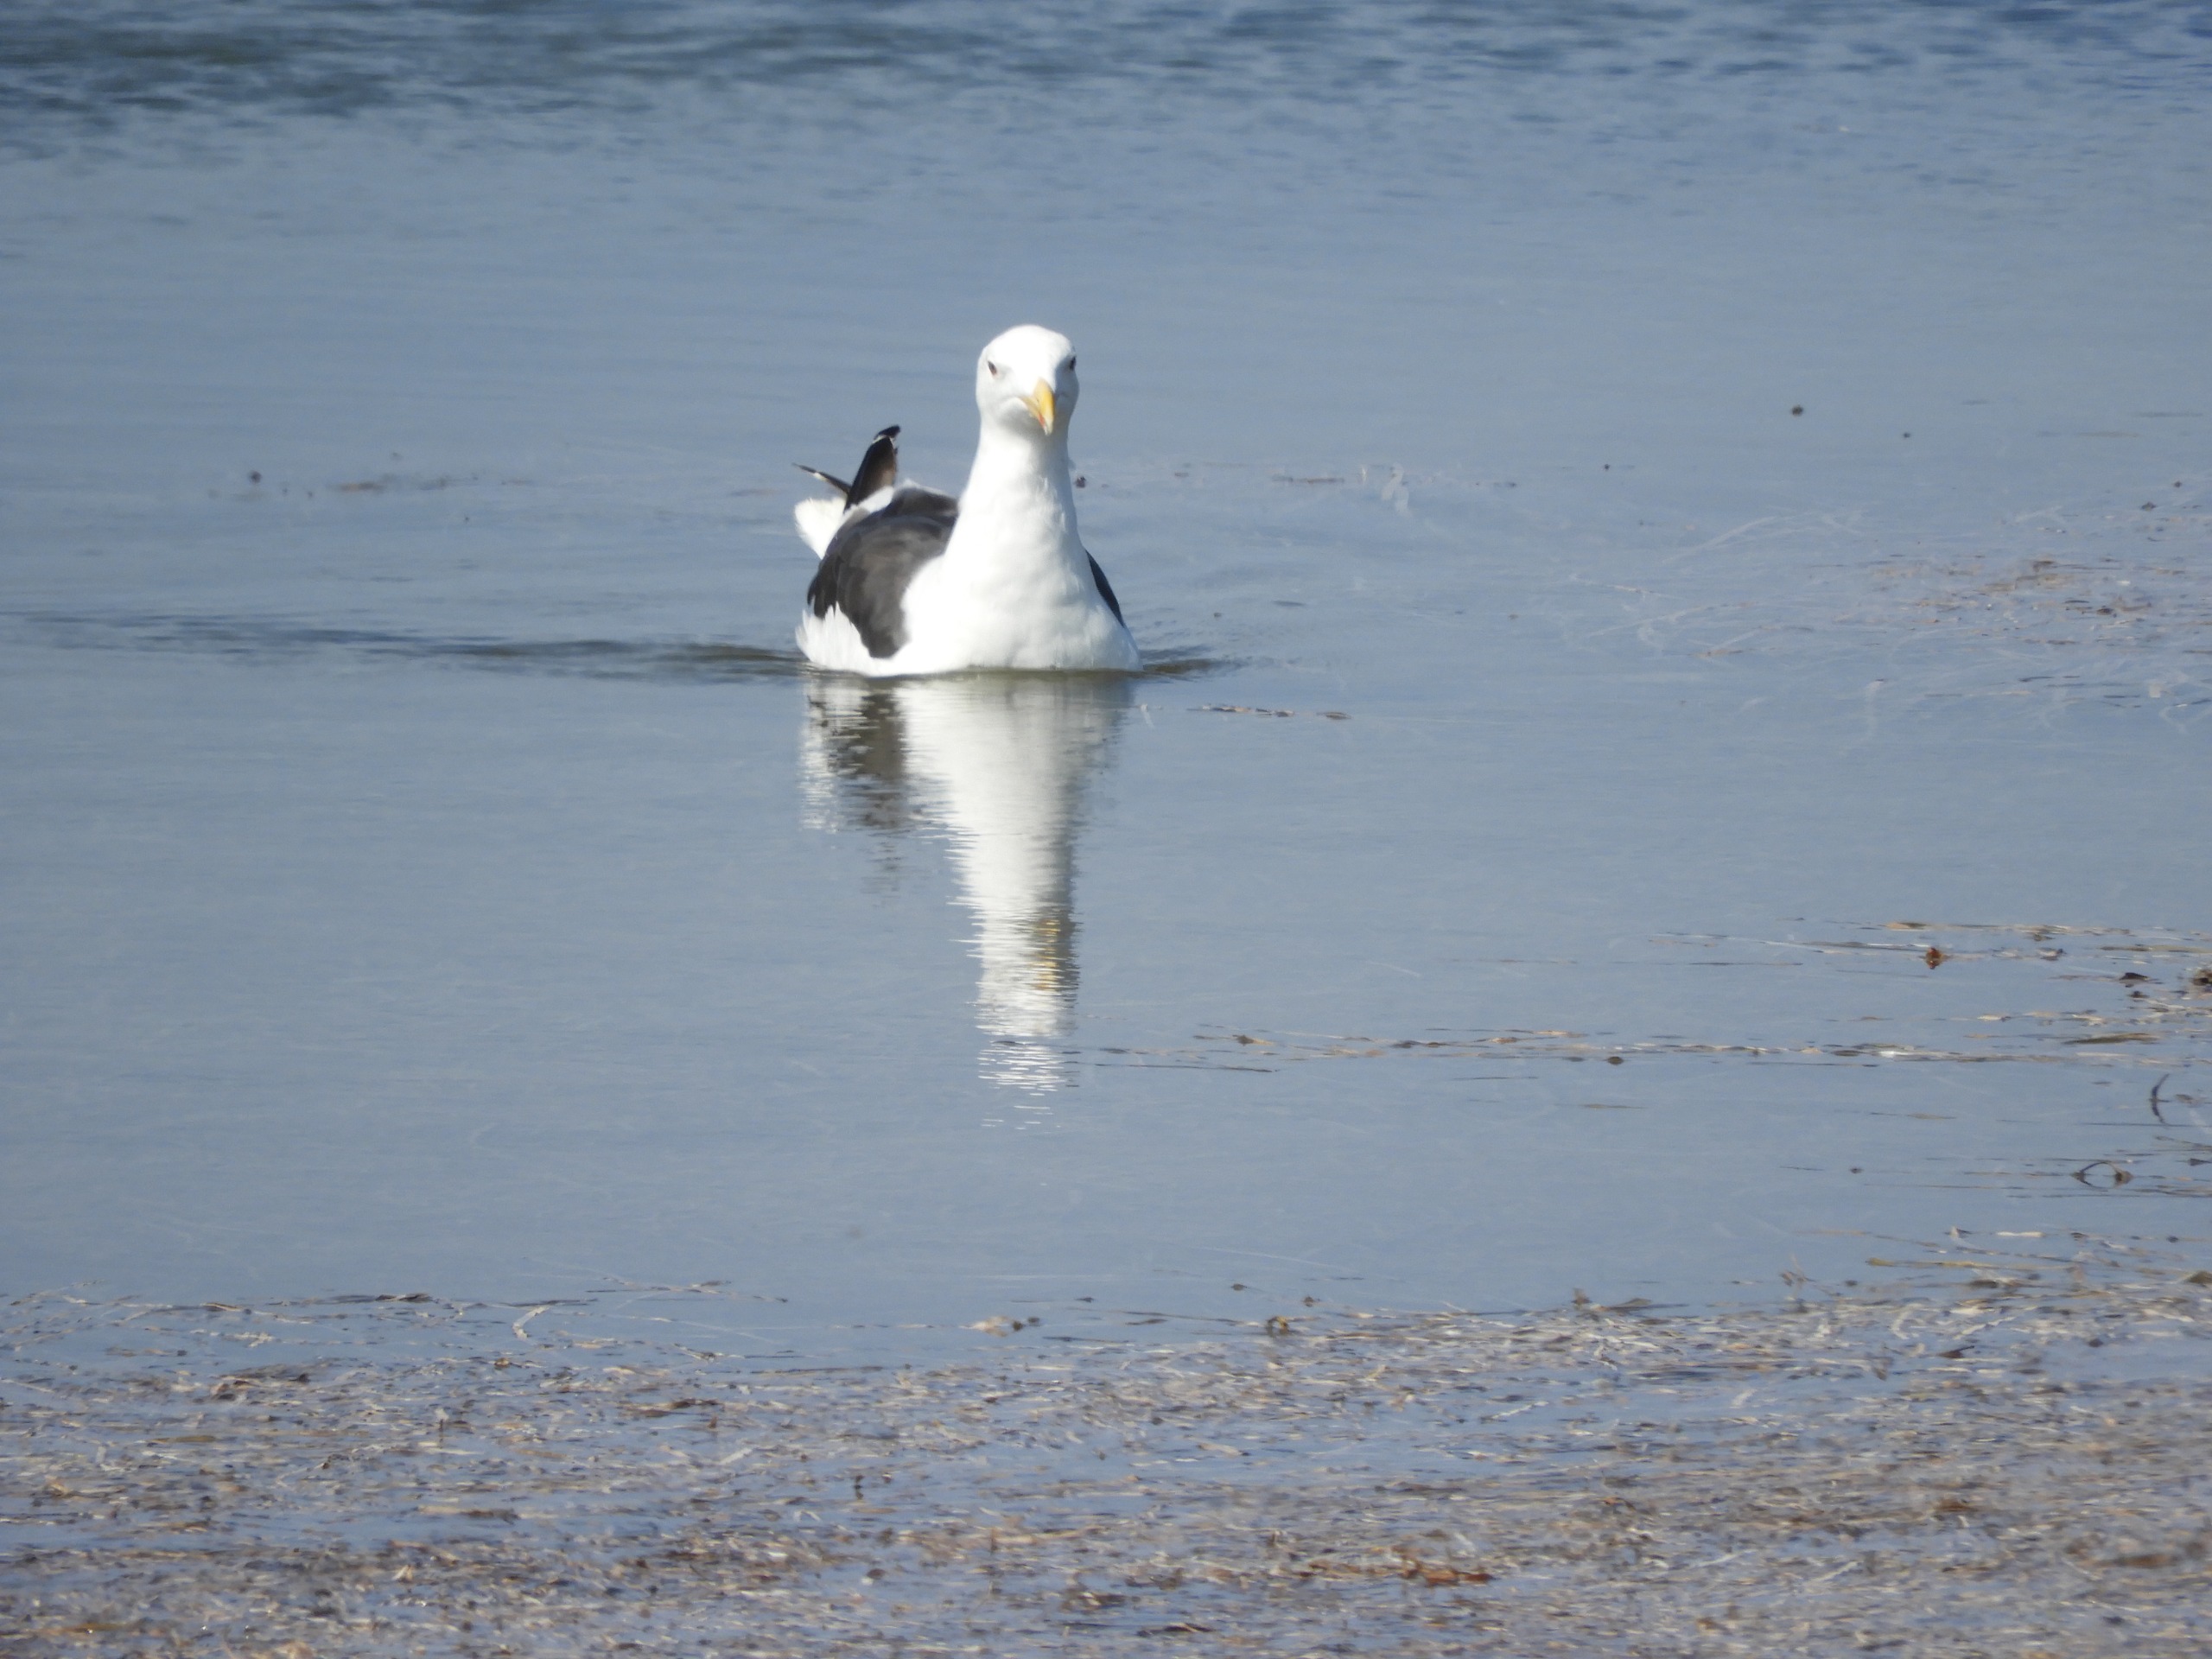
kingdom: Animalia
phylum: Chordata
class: Aves
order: Charadriiformes
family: Laridae
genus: Larus
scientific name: Larus fuscus
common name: Sildemåge
